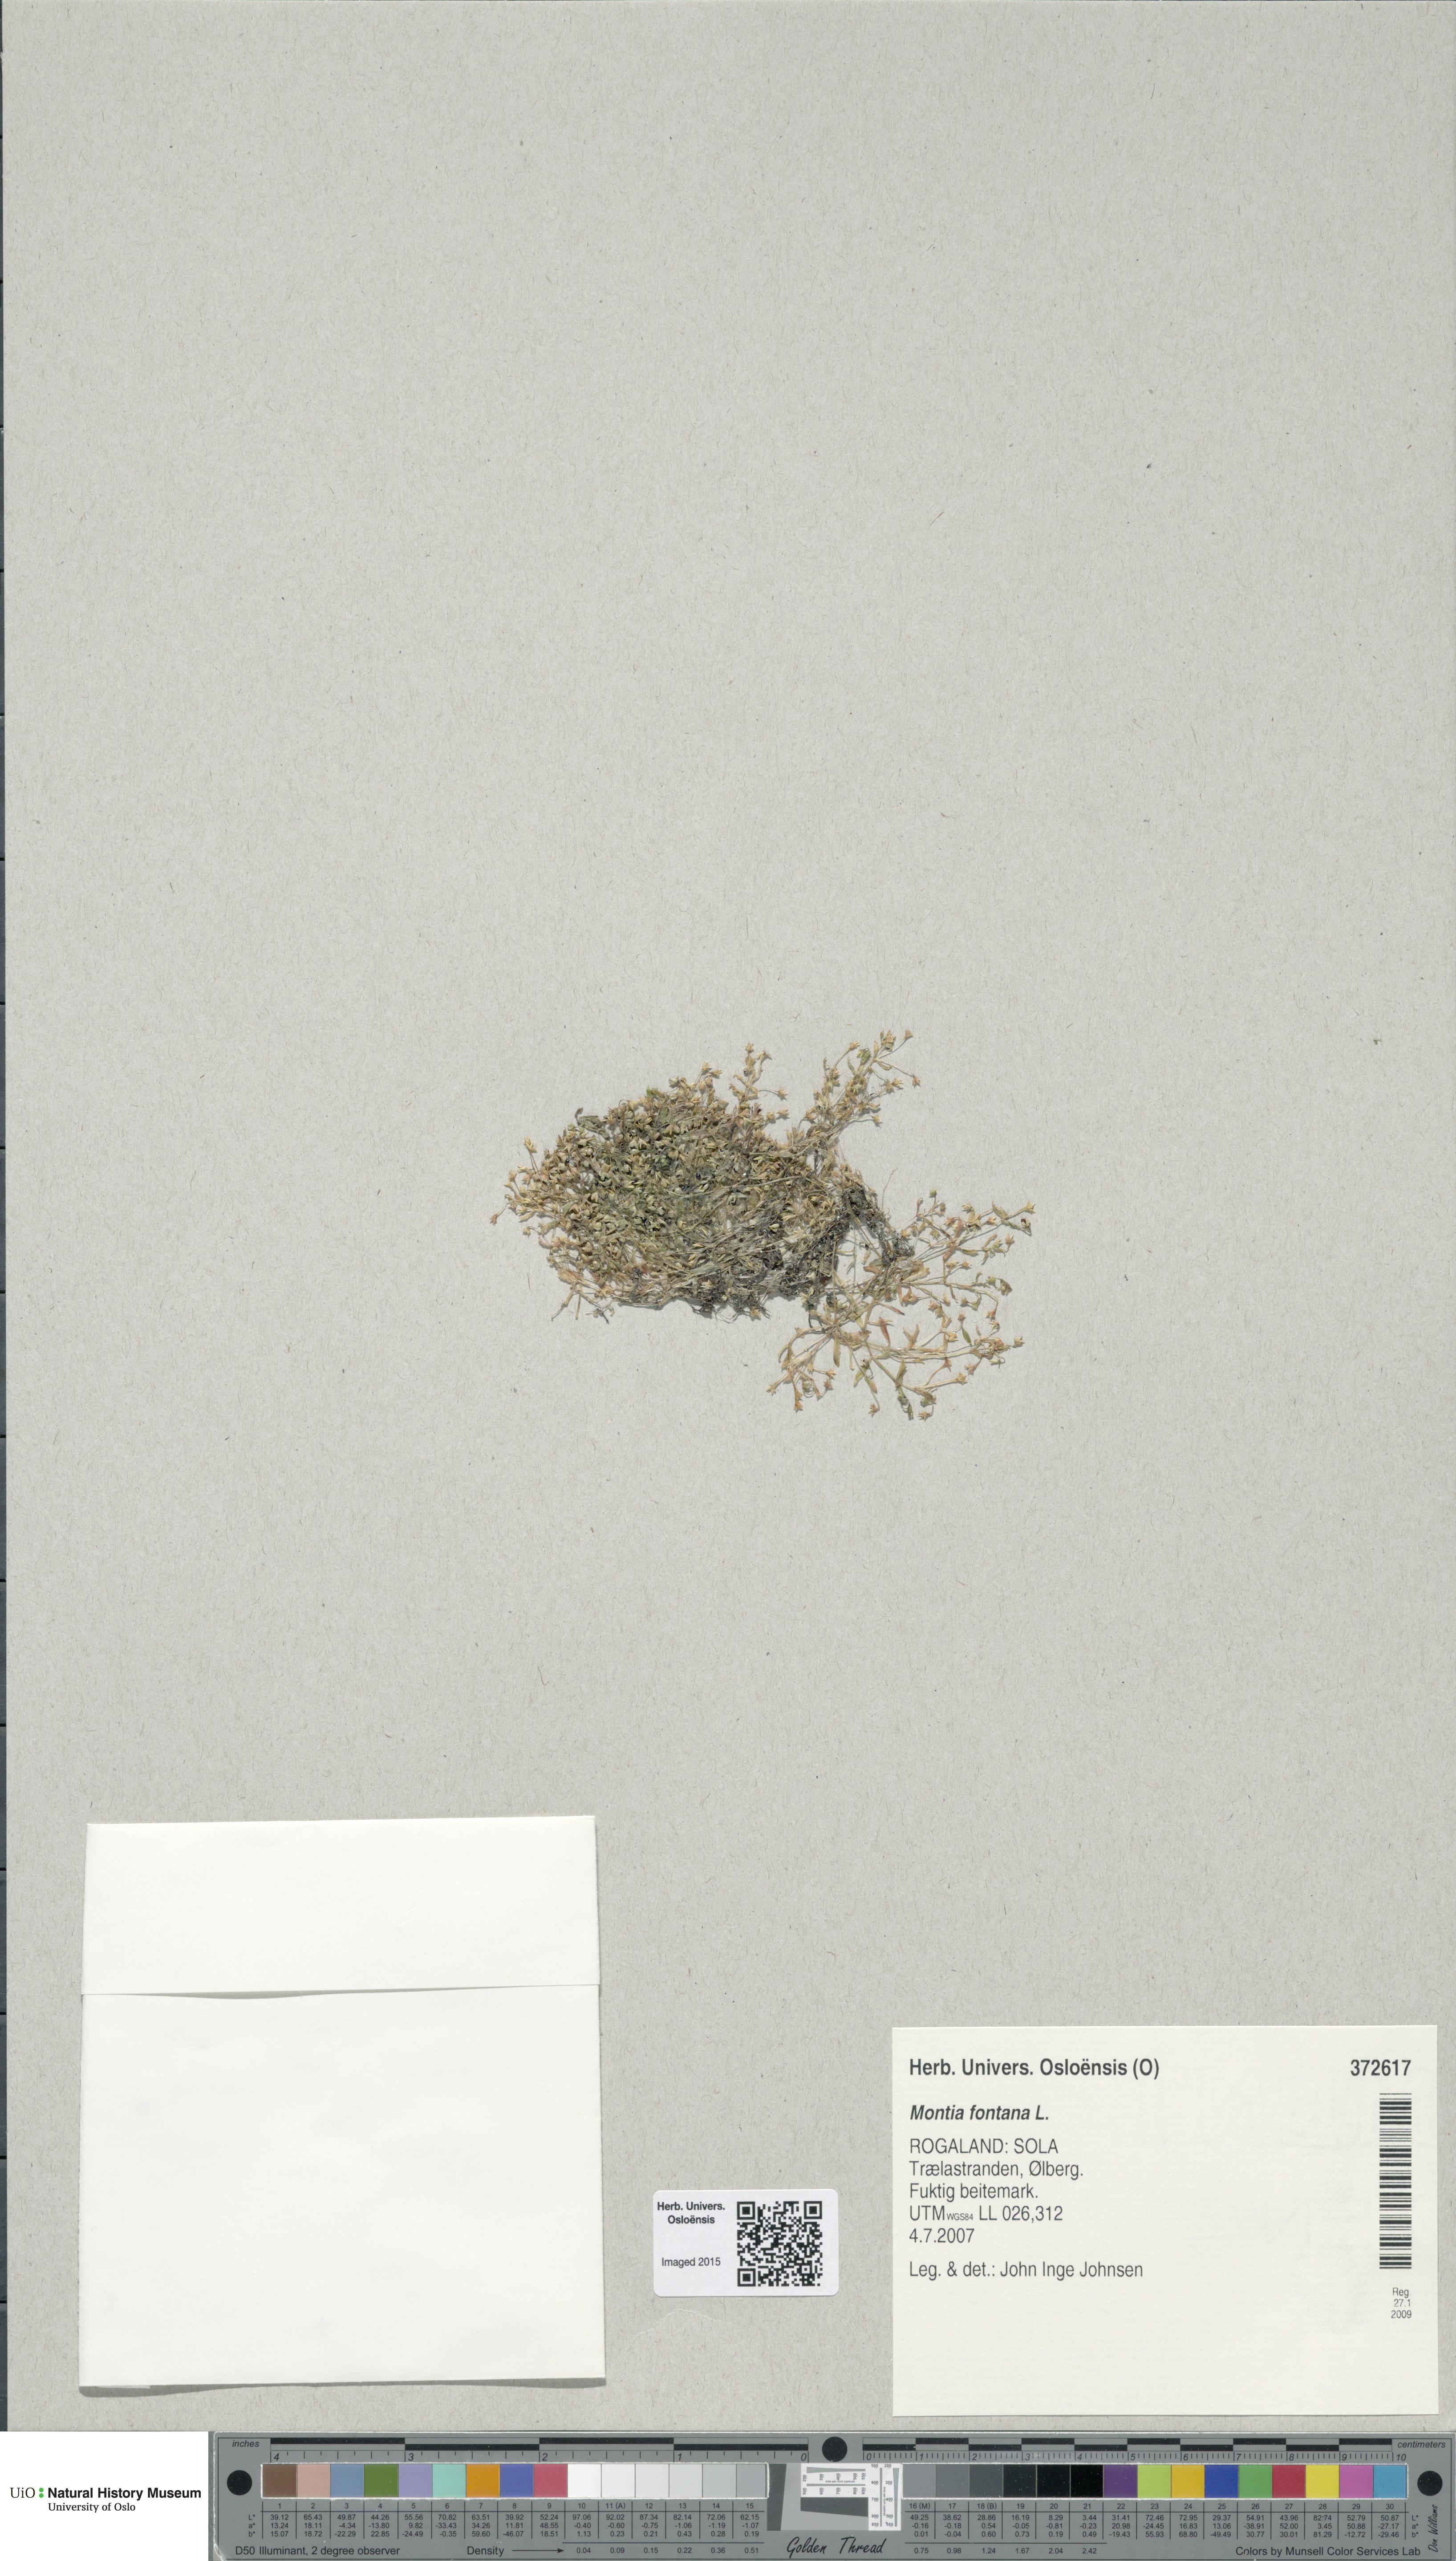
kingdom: Plantae
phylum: Tracheophyta
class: Magnoliopsida
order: Caryophyllales
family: Montiaceae
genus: Montia
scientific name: Montia fontana
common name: Blinks
